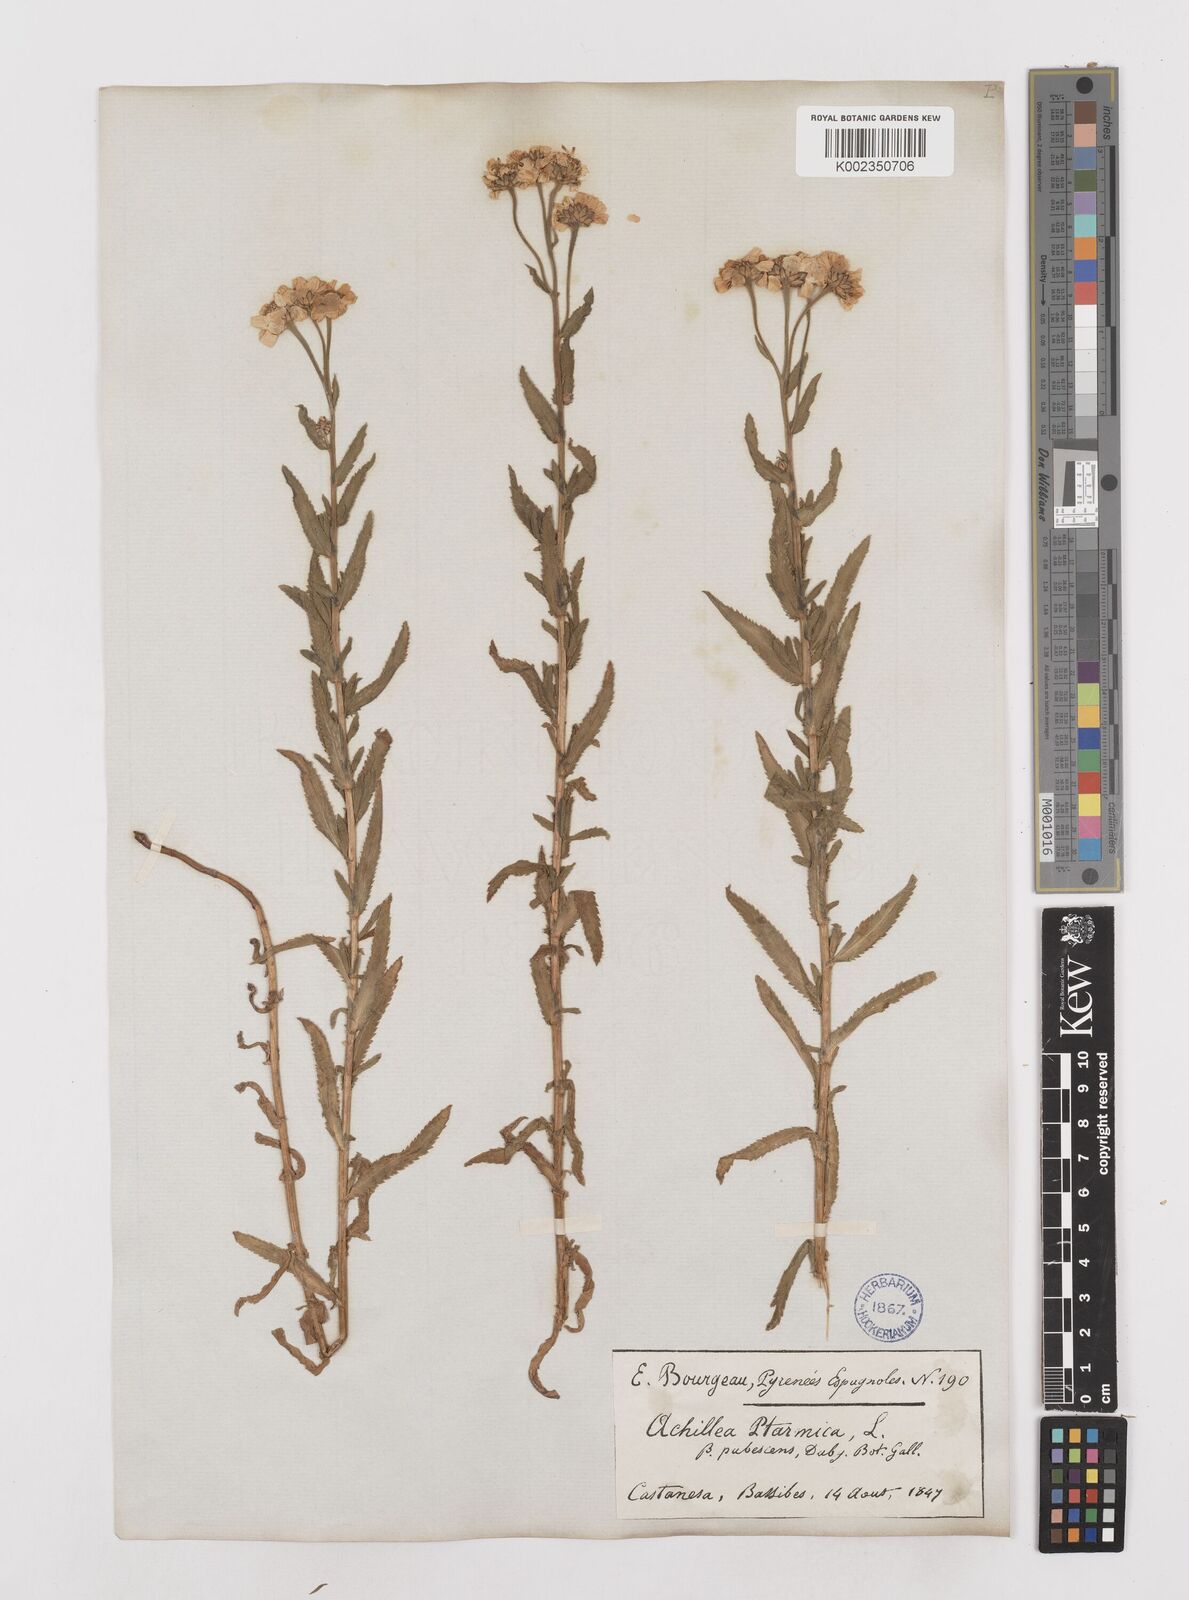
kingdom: Plantae
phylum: Tracheophyta
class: Magnoliopsida
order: Asterales
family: Asteraceae
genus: Achillea
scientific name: Achillea pyrenaica
